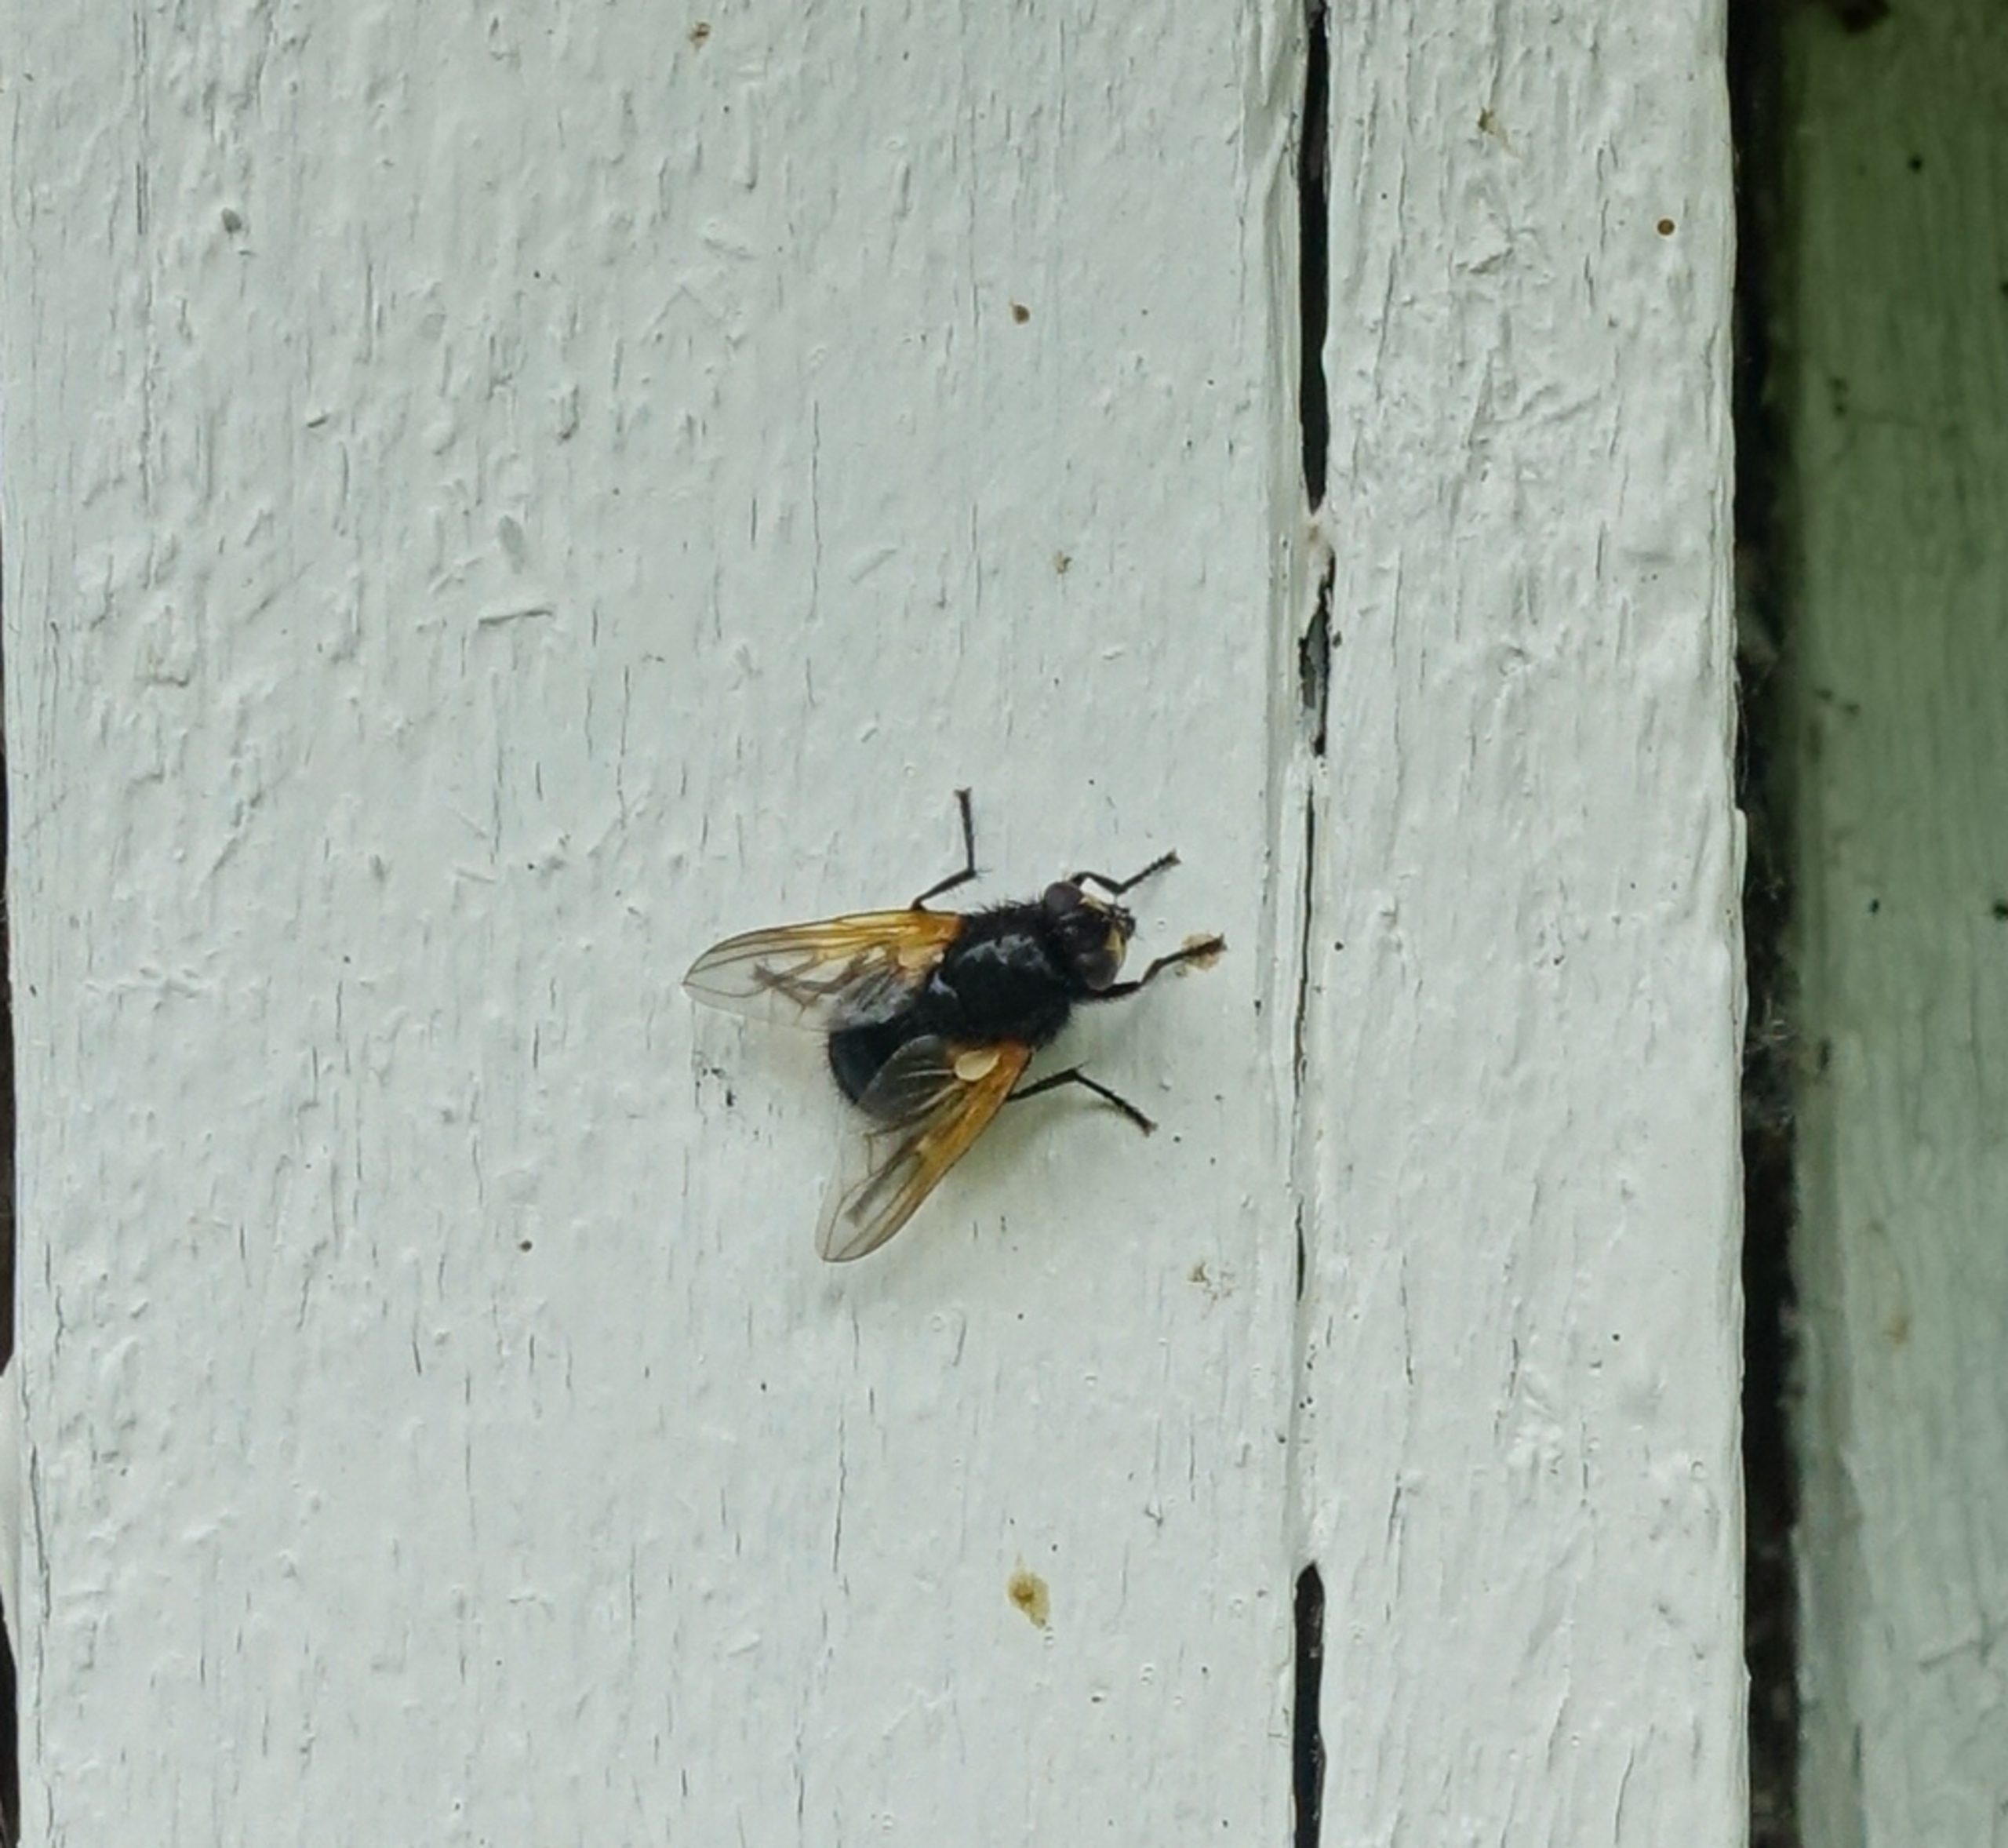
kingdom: Animalia
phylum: Arthropoda
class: Insecta
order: Diptera
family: Muscidae
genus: Mesembrina
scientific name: Mesembrina meridiana
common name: Gulvinget flue
